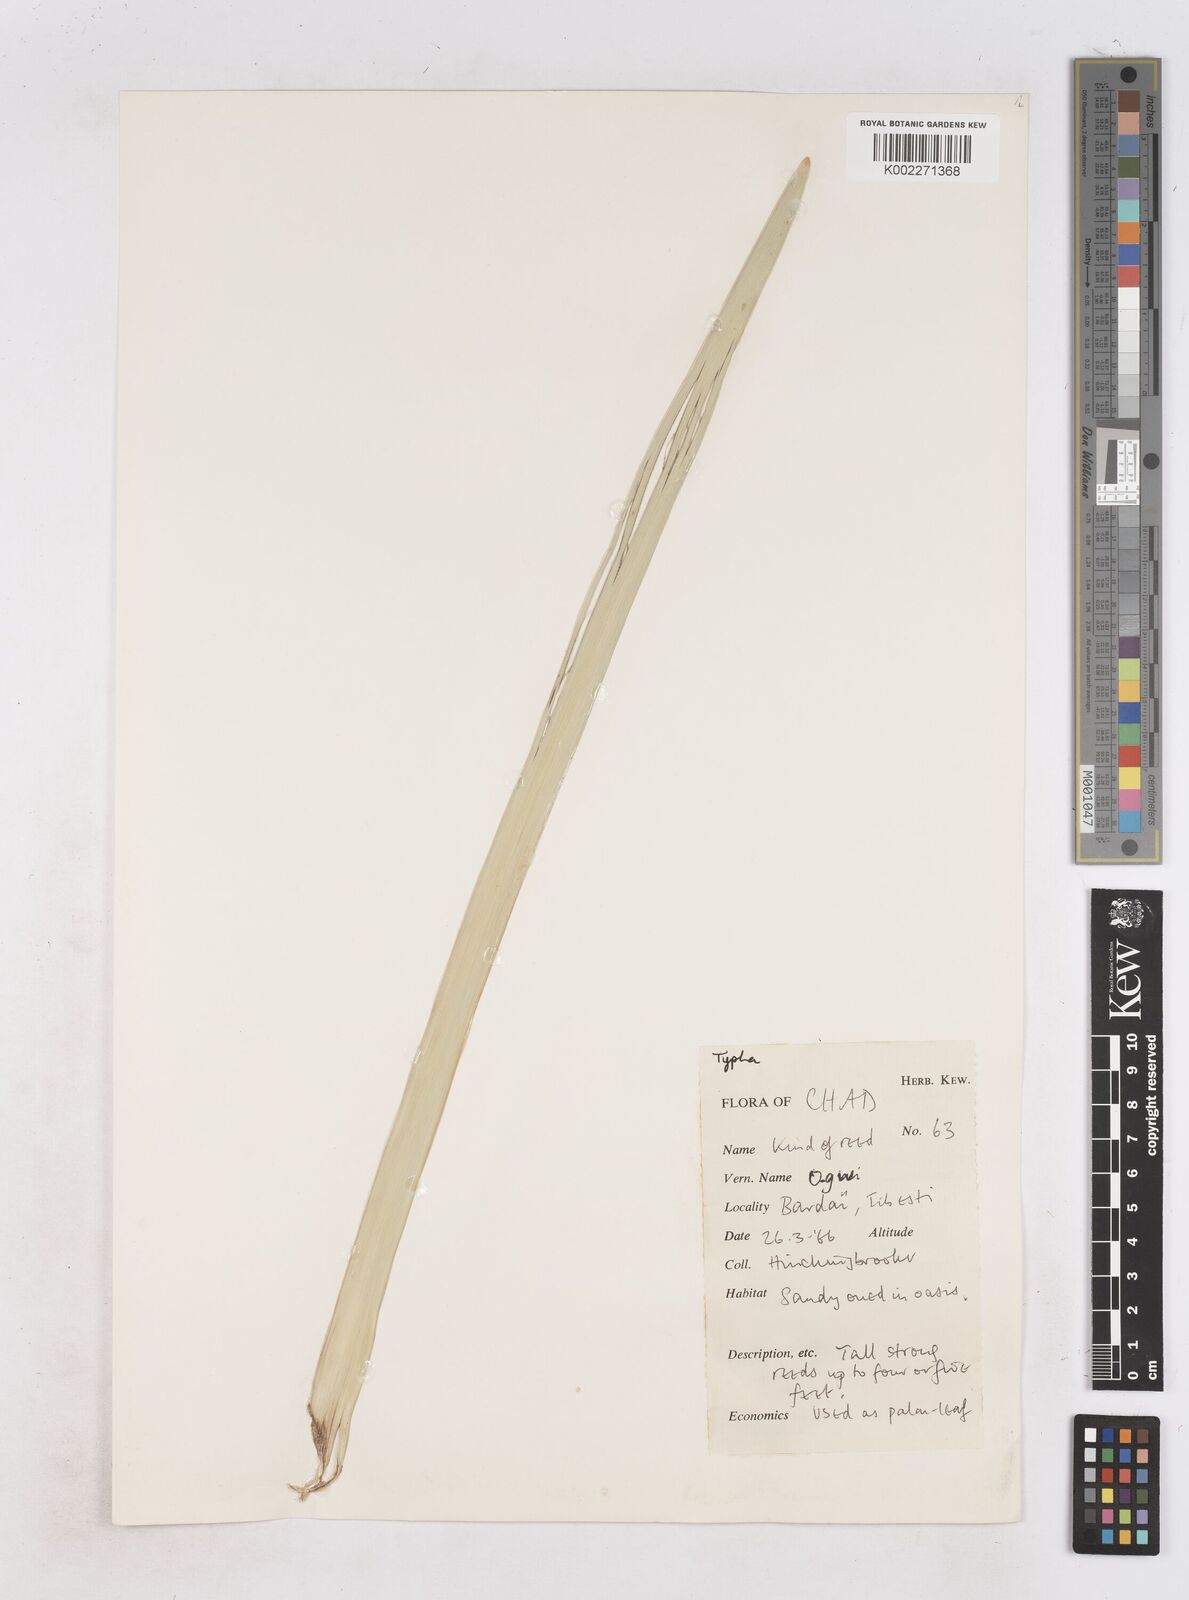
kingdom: Plantae
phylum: Tracheophyta
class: Liliopsida
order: Poales
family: Typhaceae
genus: Typha
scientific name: Typha
